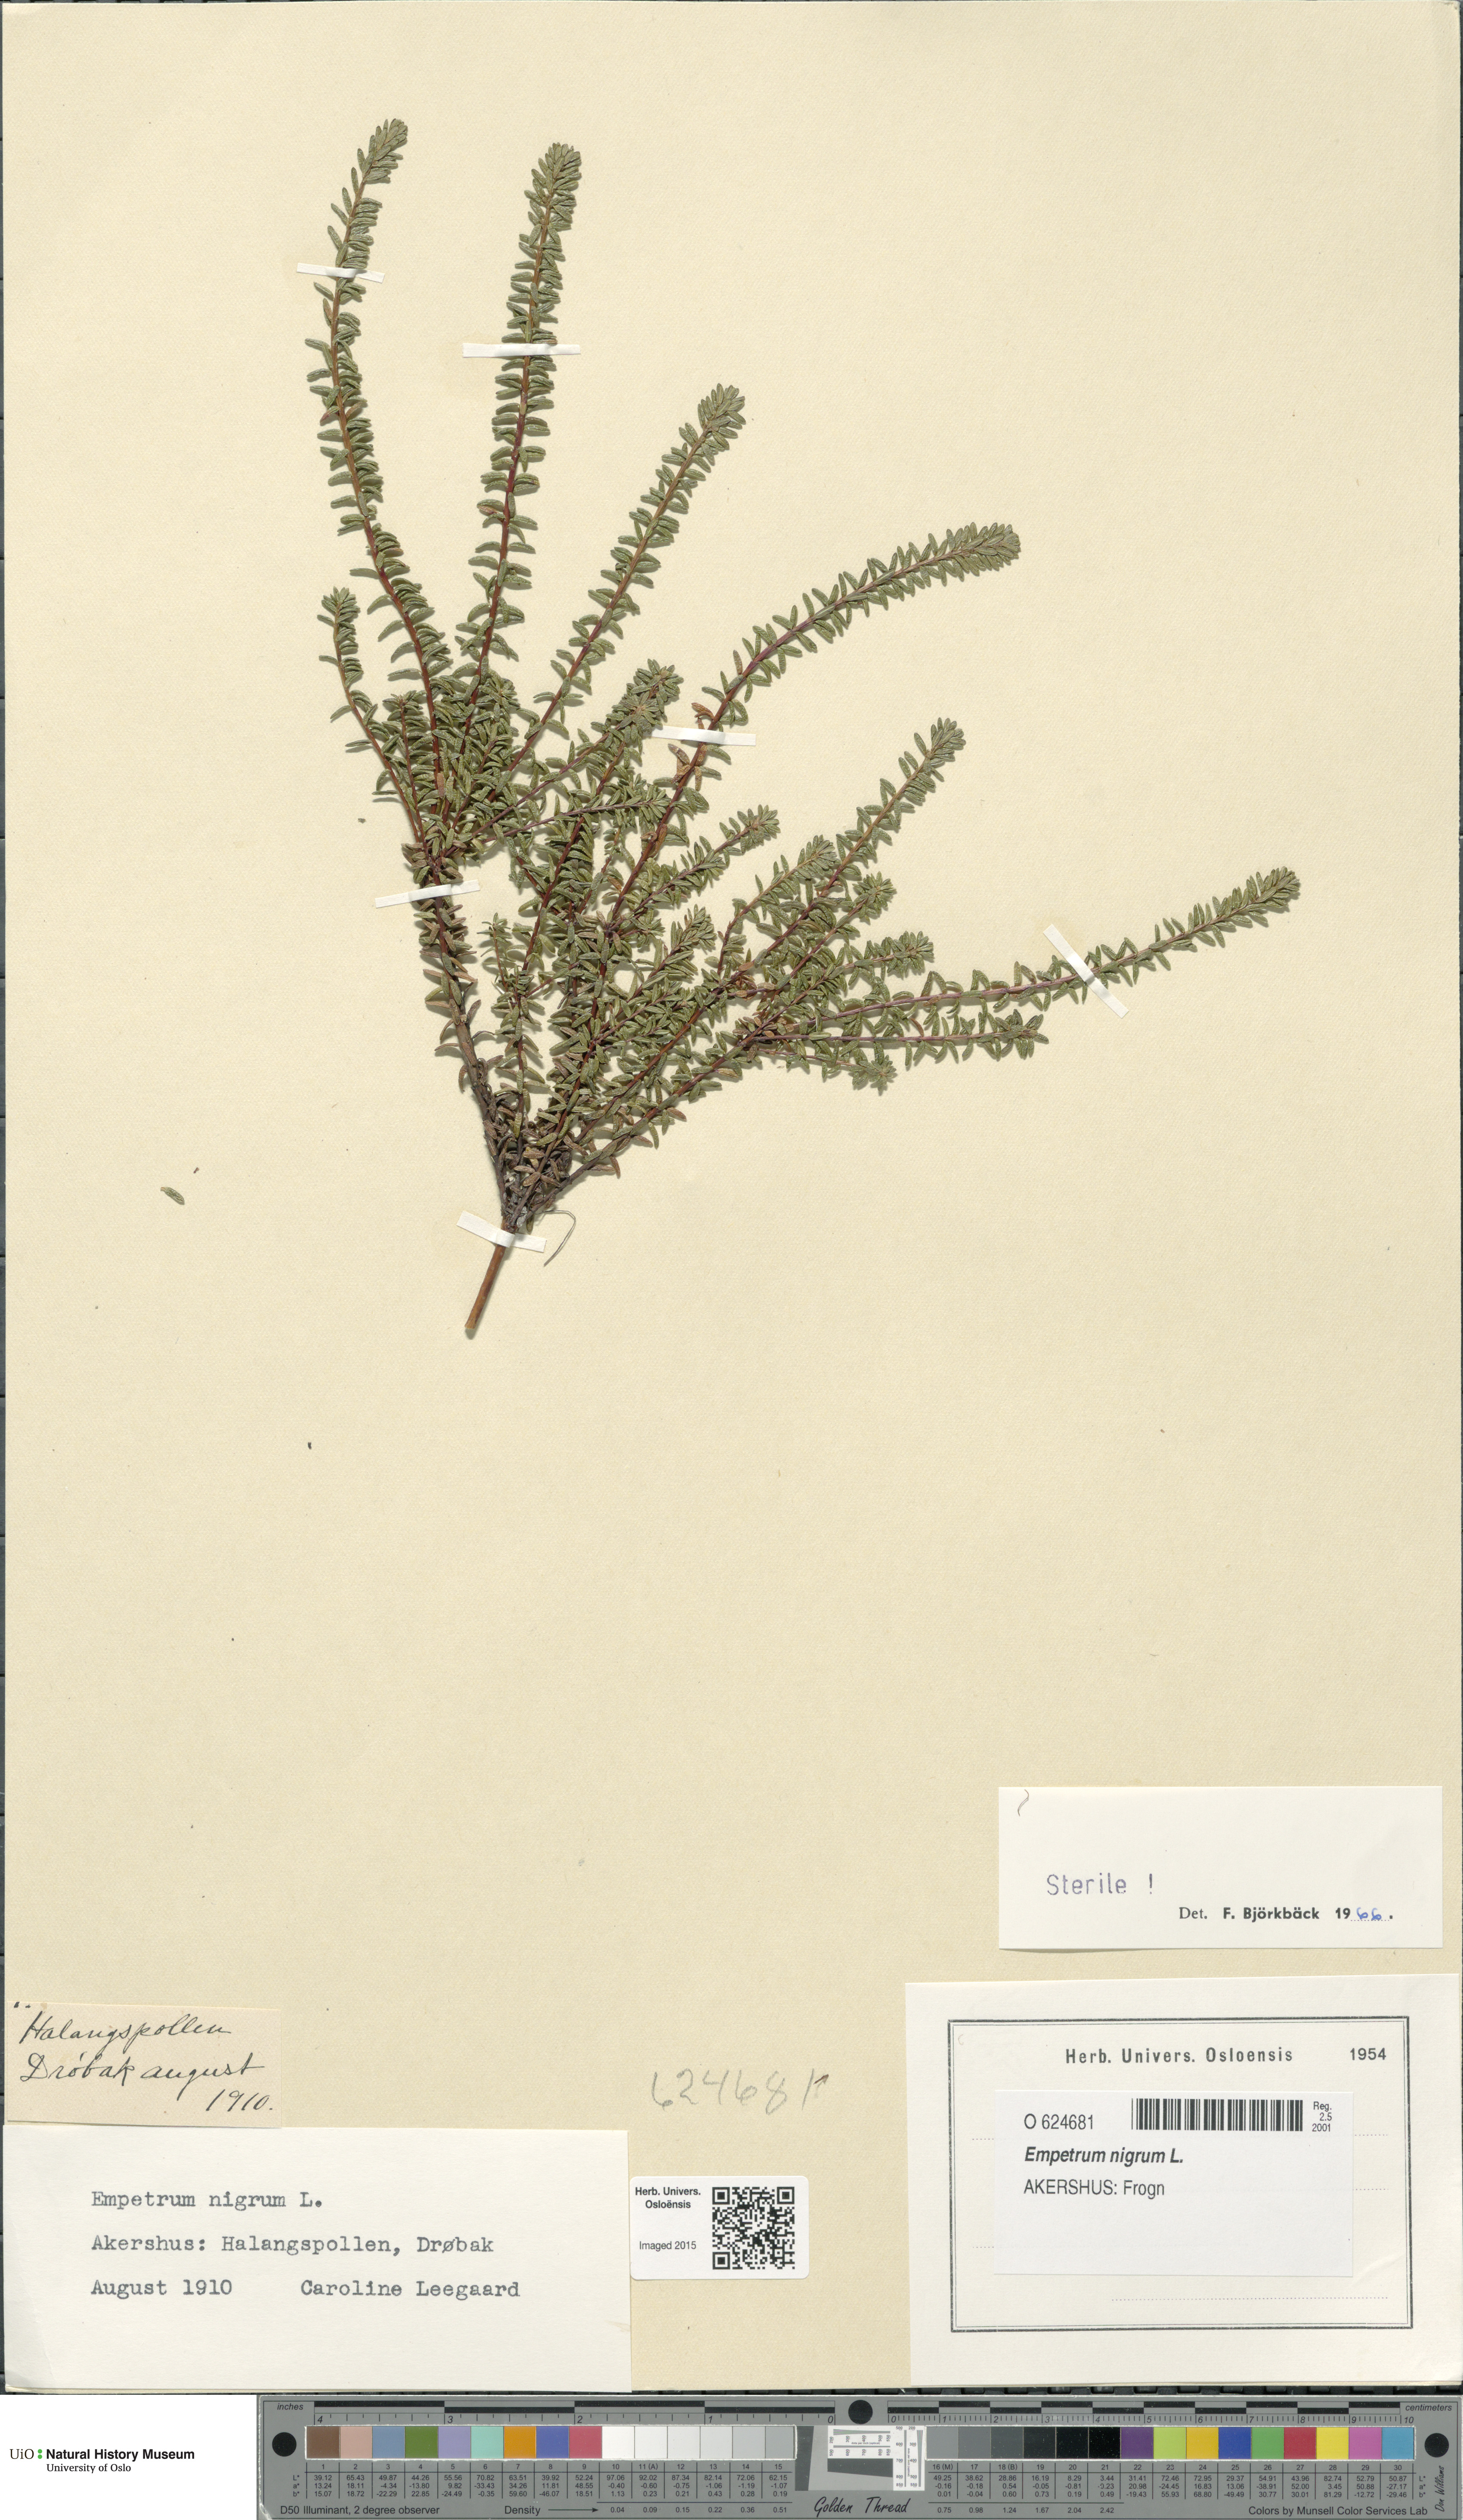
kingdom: Plantae
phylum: Tracheophyta
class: Magnoliopsida
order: Ericales
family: Ericaceae
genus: Empetrum
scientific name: Empetrum nigrum
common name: Black crowberry
